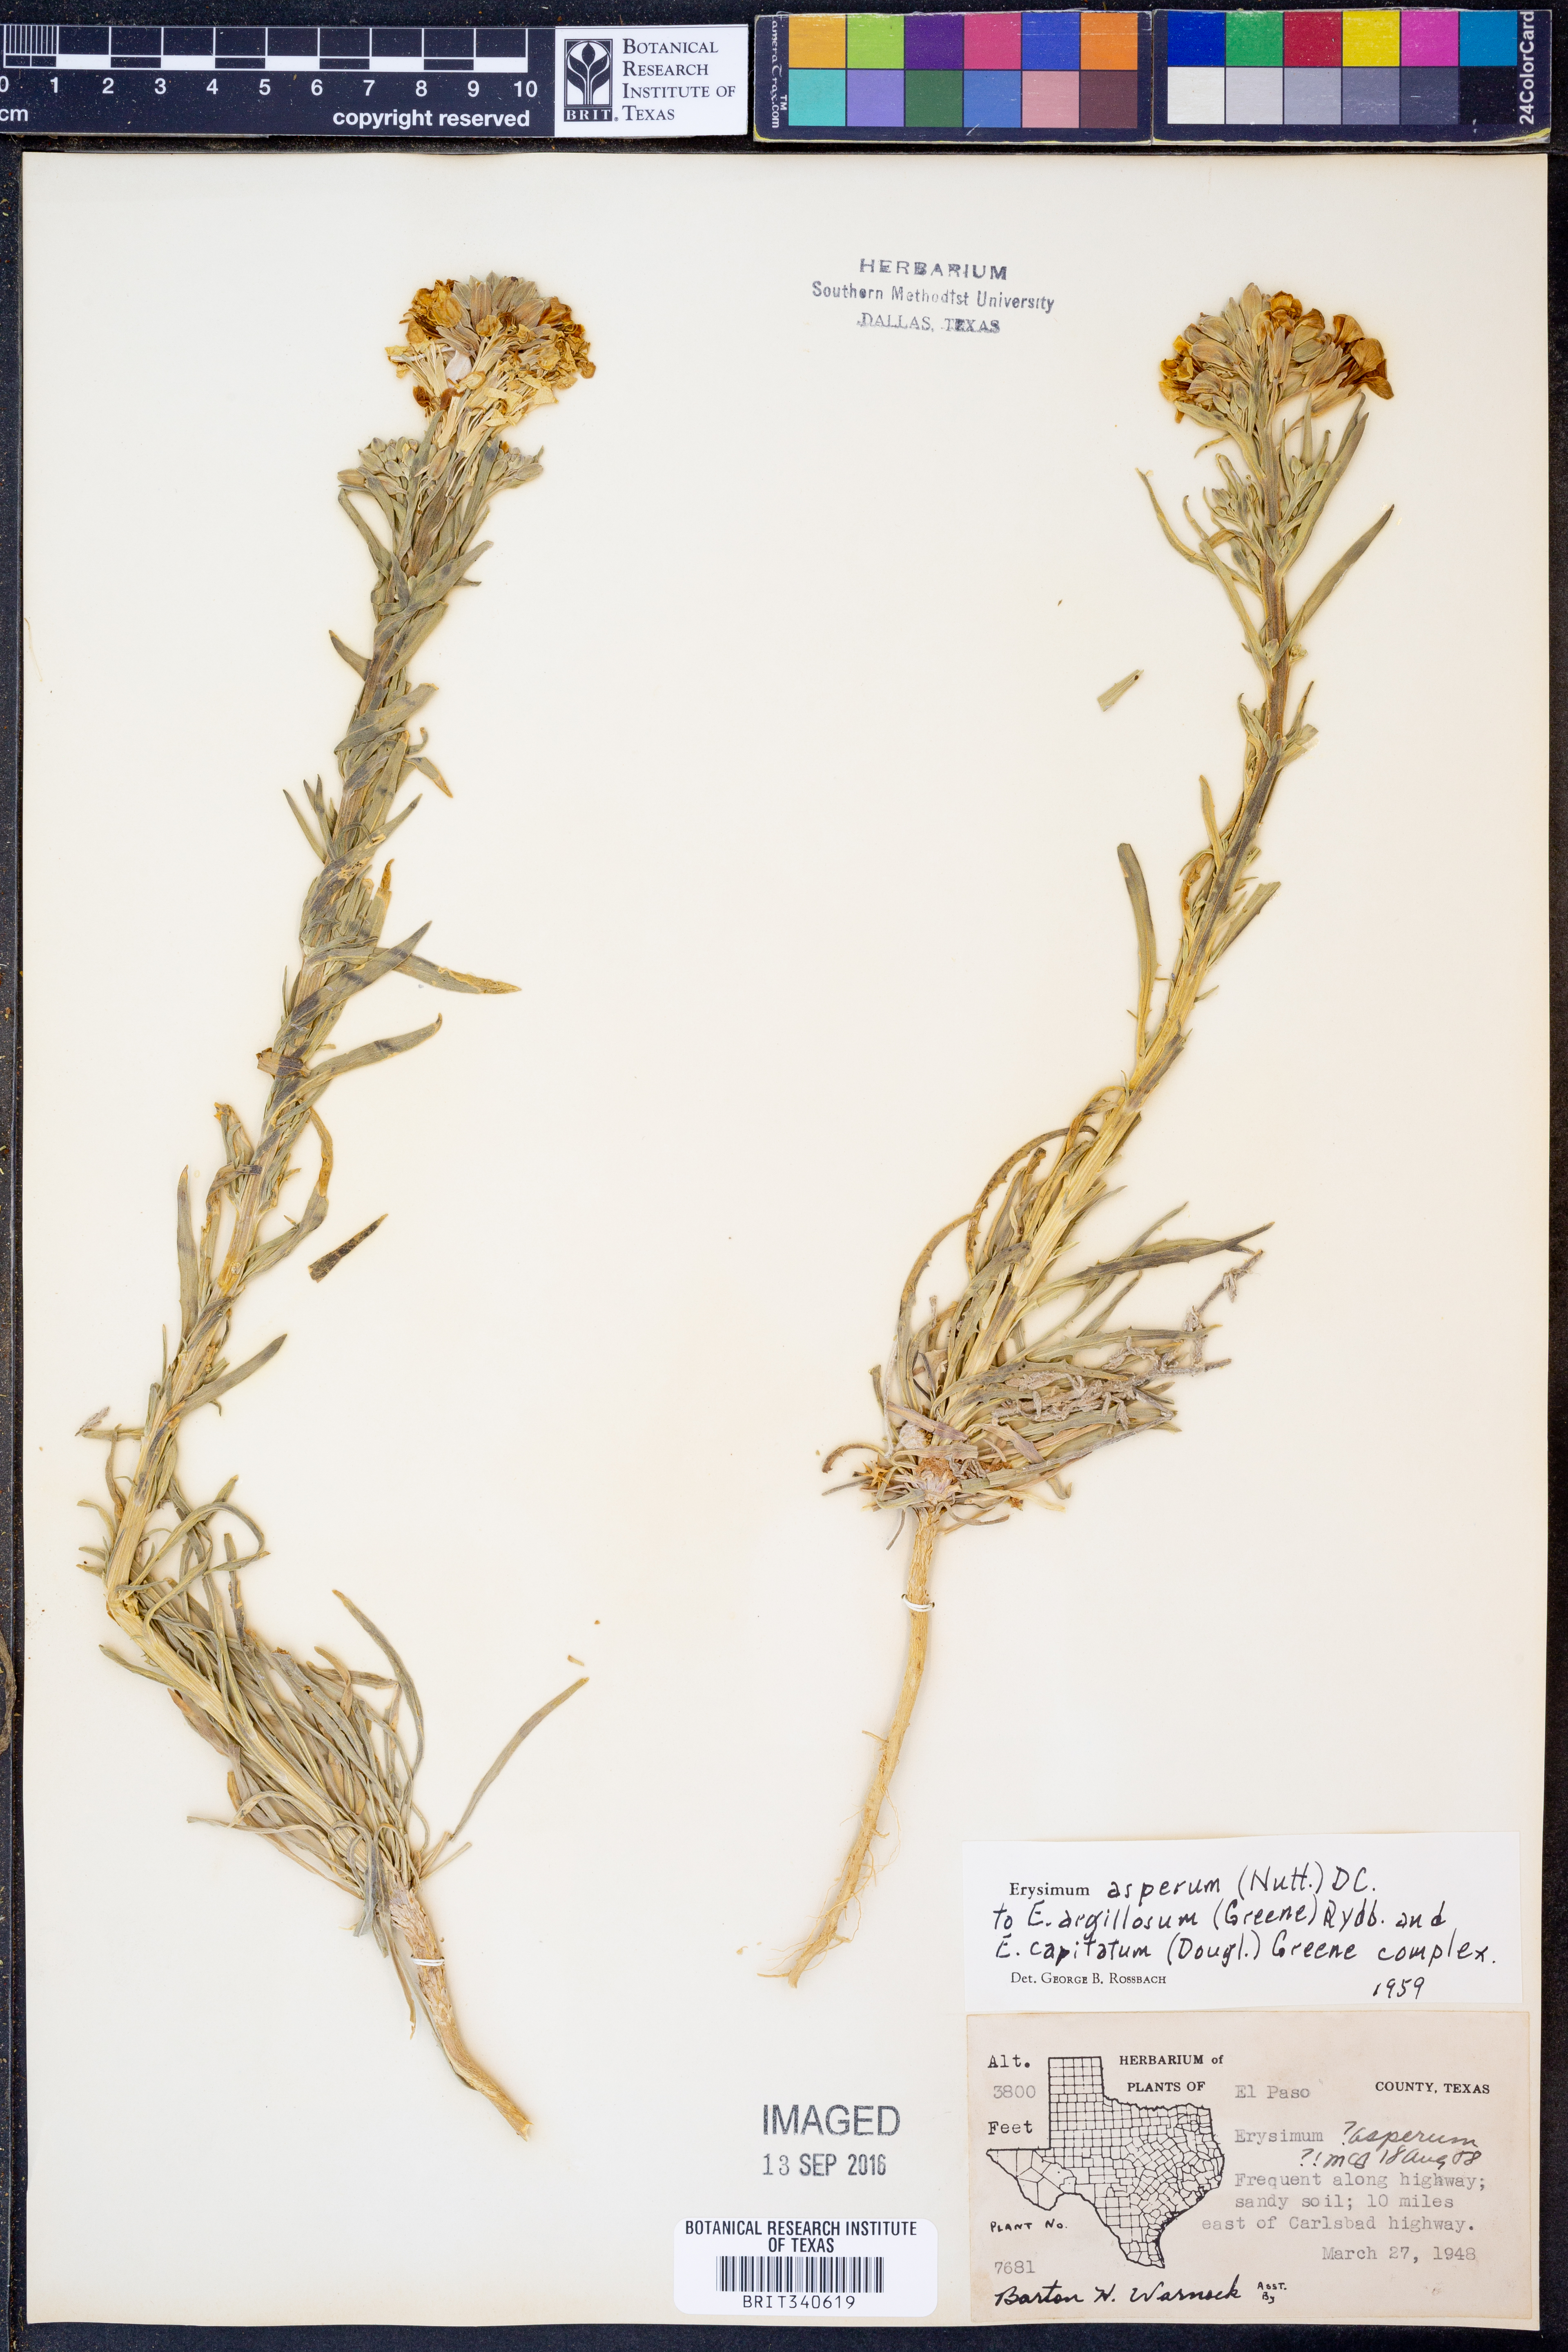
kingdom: Plantae
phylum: Tracheophyta
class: Magnoliopsida
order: Brassicales
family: Brassicaceae
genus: Erysimum
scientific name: Erysimum asperum
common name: Western wallflower
